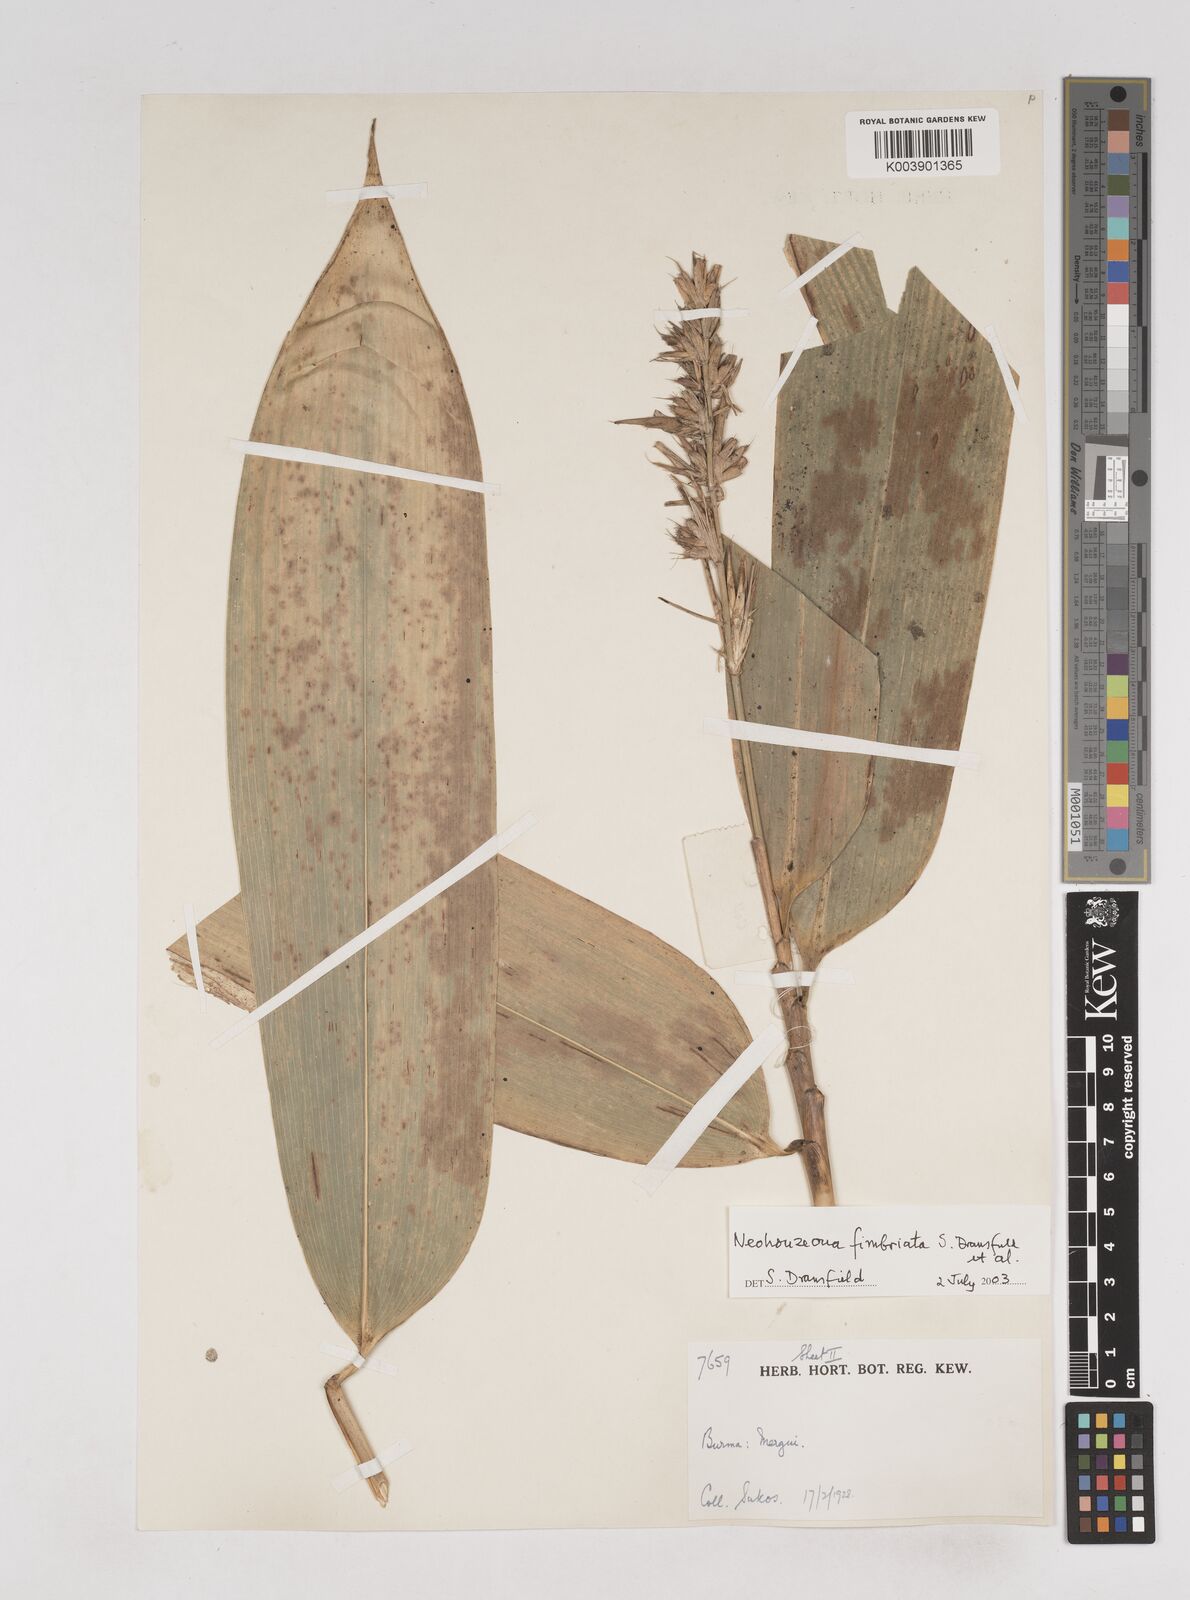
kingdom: Plantae
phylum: Tracheophyta
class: Liliopsida
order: Poales
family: Poaceae
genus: Schizostachyum
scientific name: Schizostachyum
